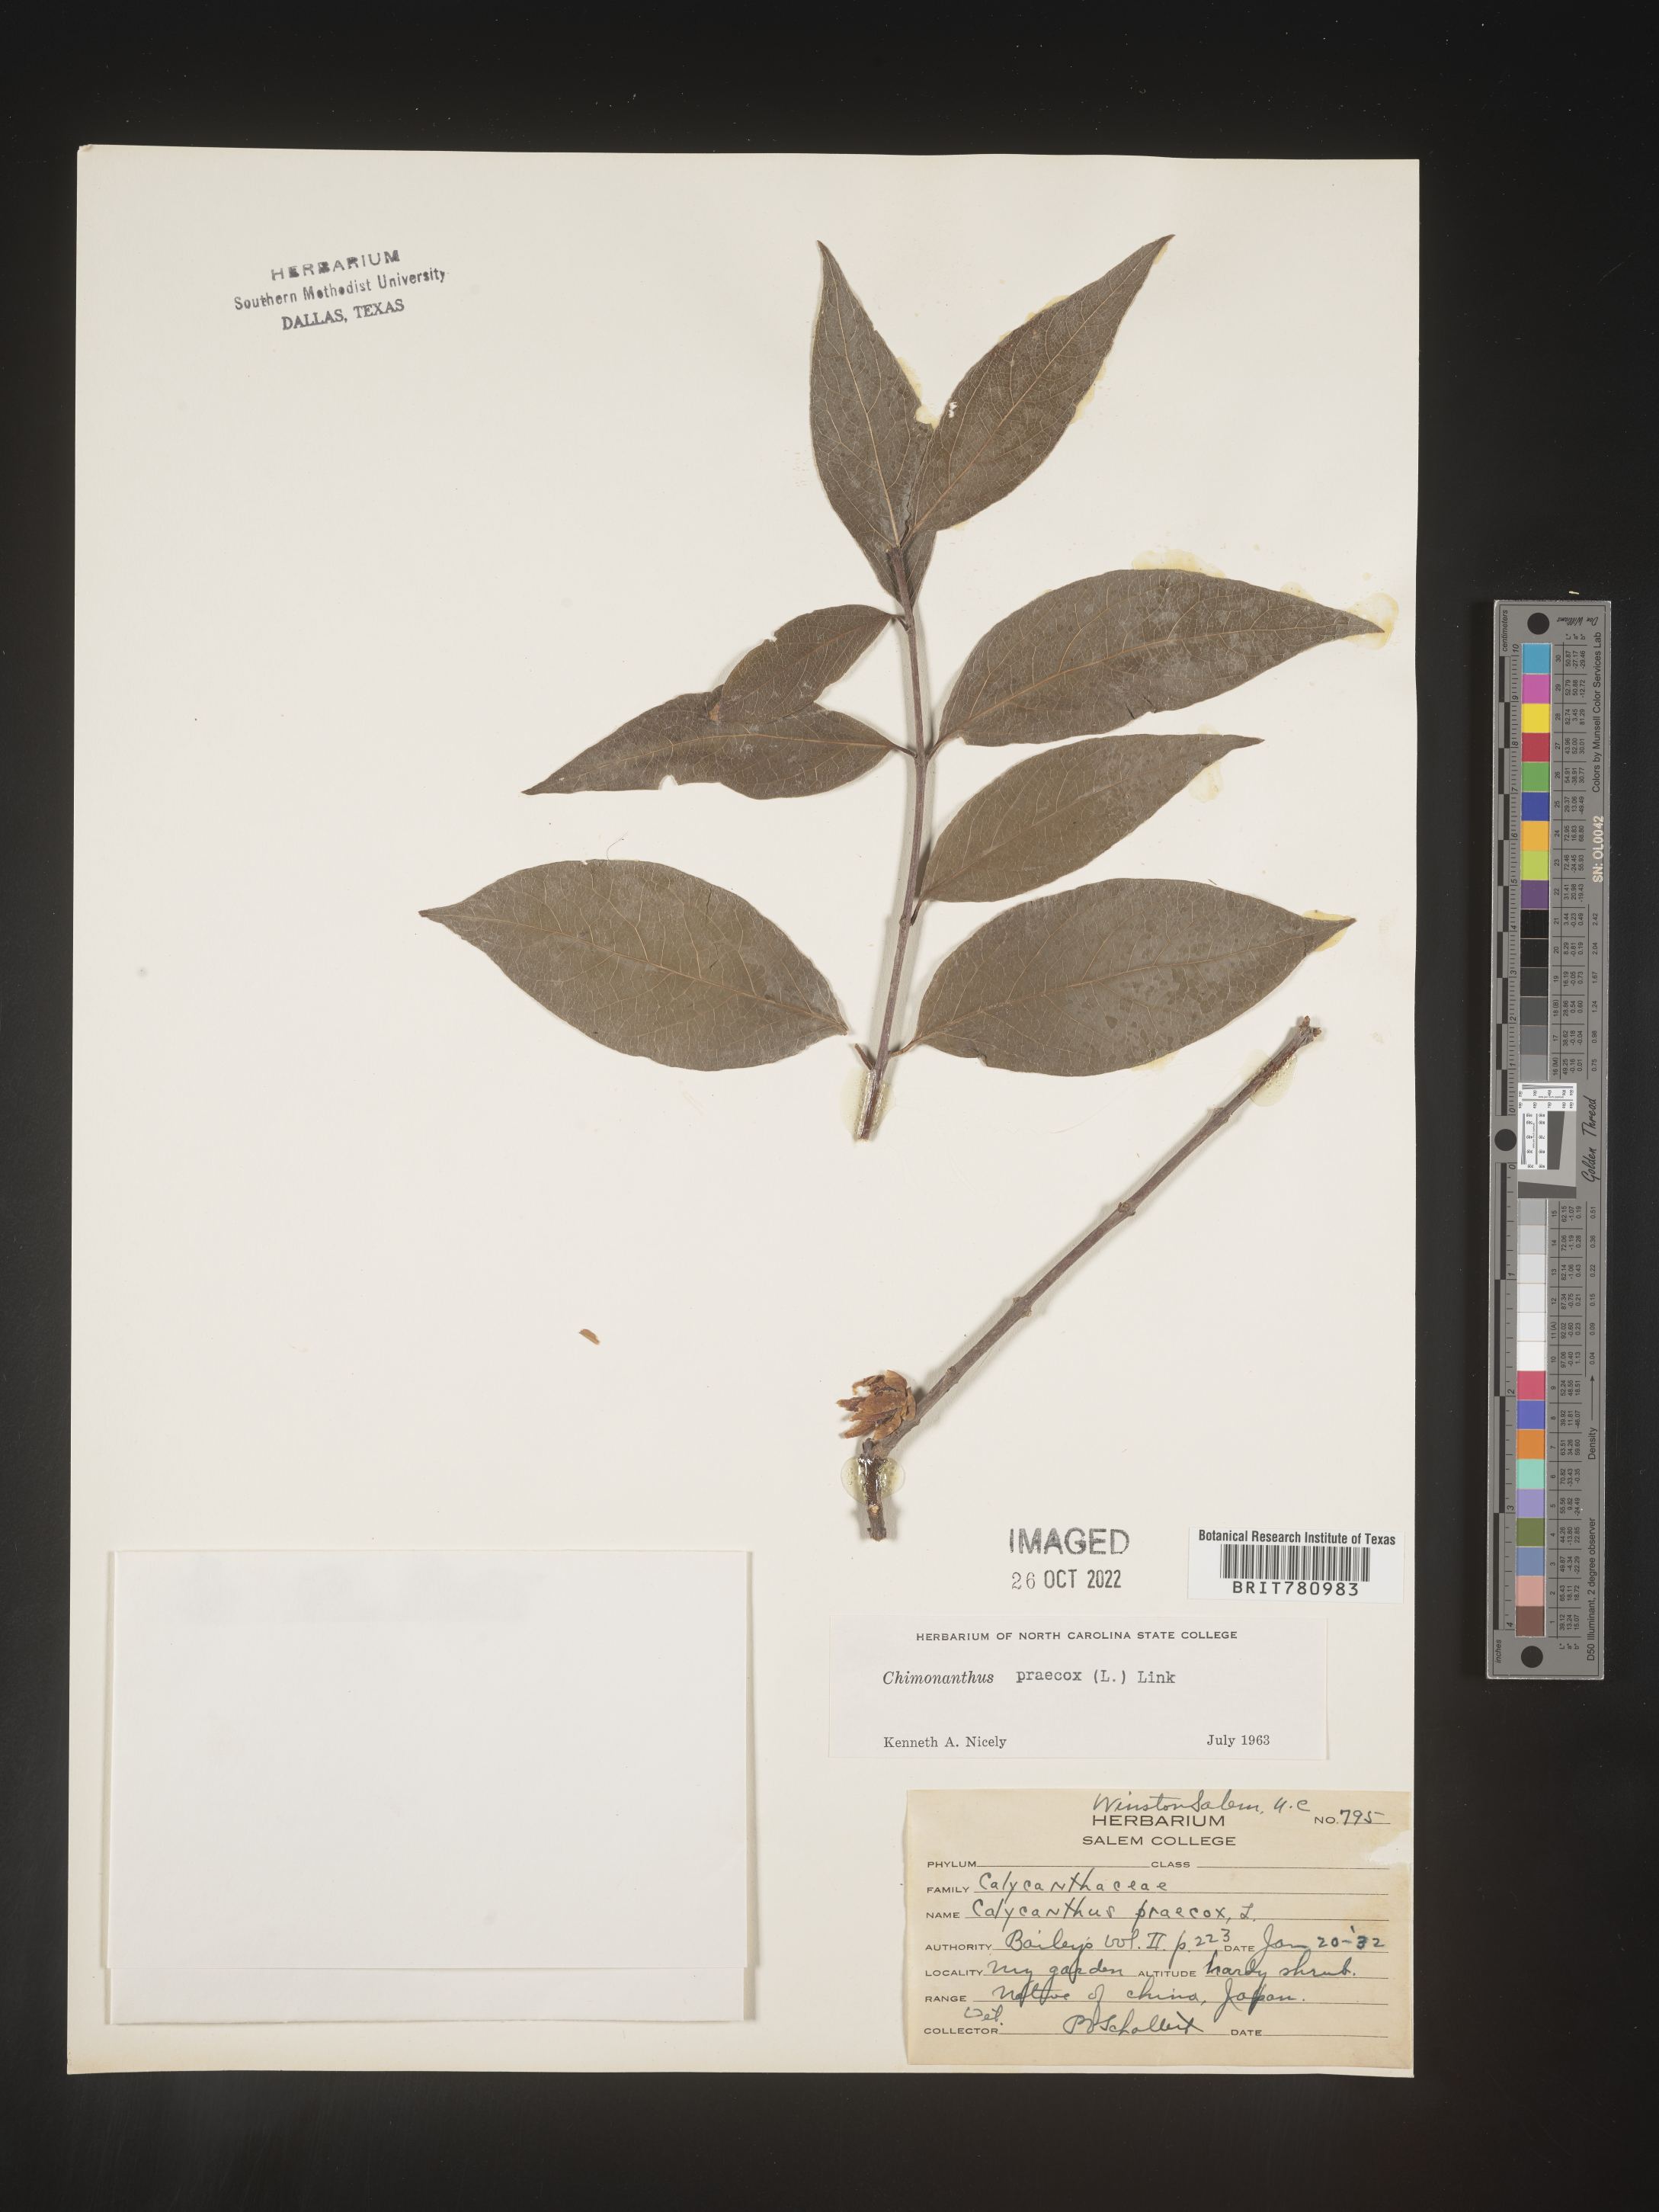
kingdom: Plantae
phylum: Tracheophyta
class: Magnoliopsida
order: Laurales
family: Calycanthaceae
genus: Chimonanthus
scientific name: Chimonanthus
